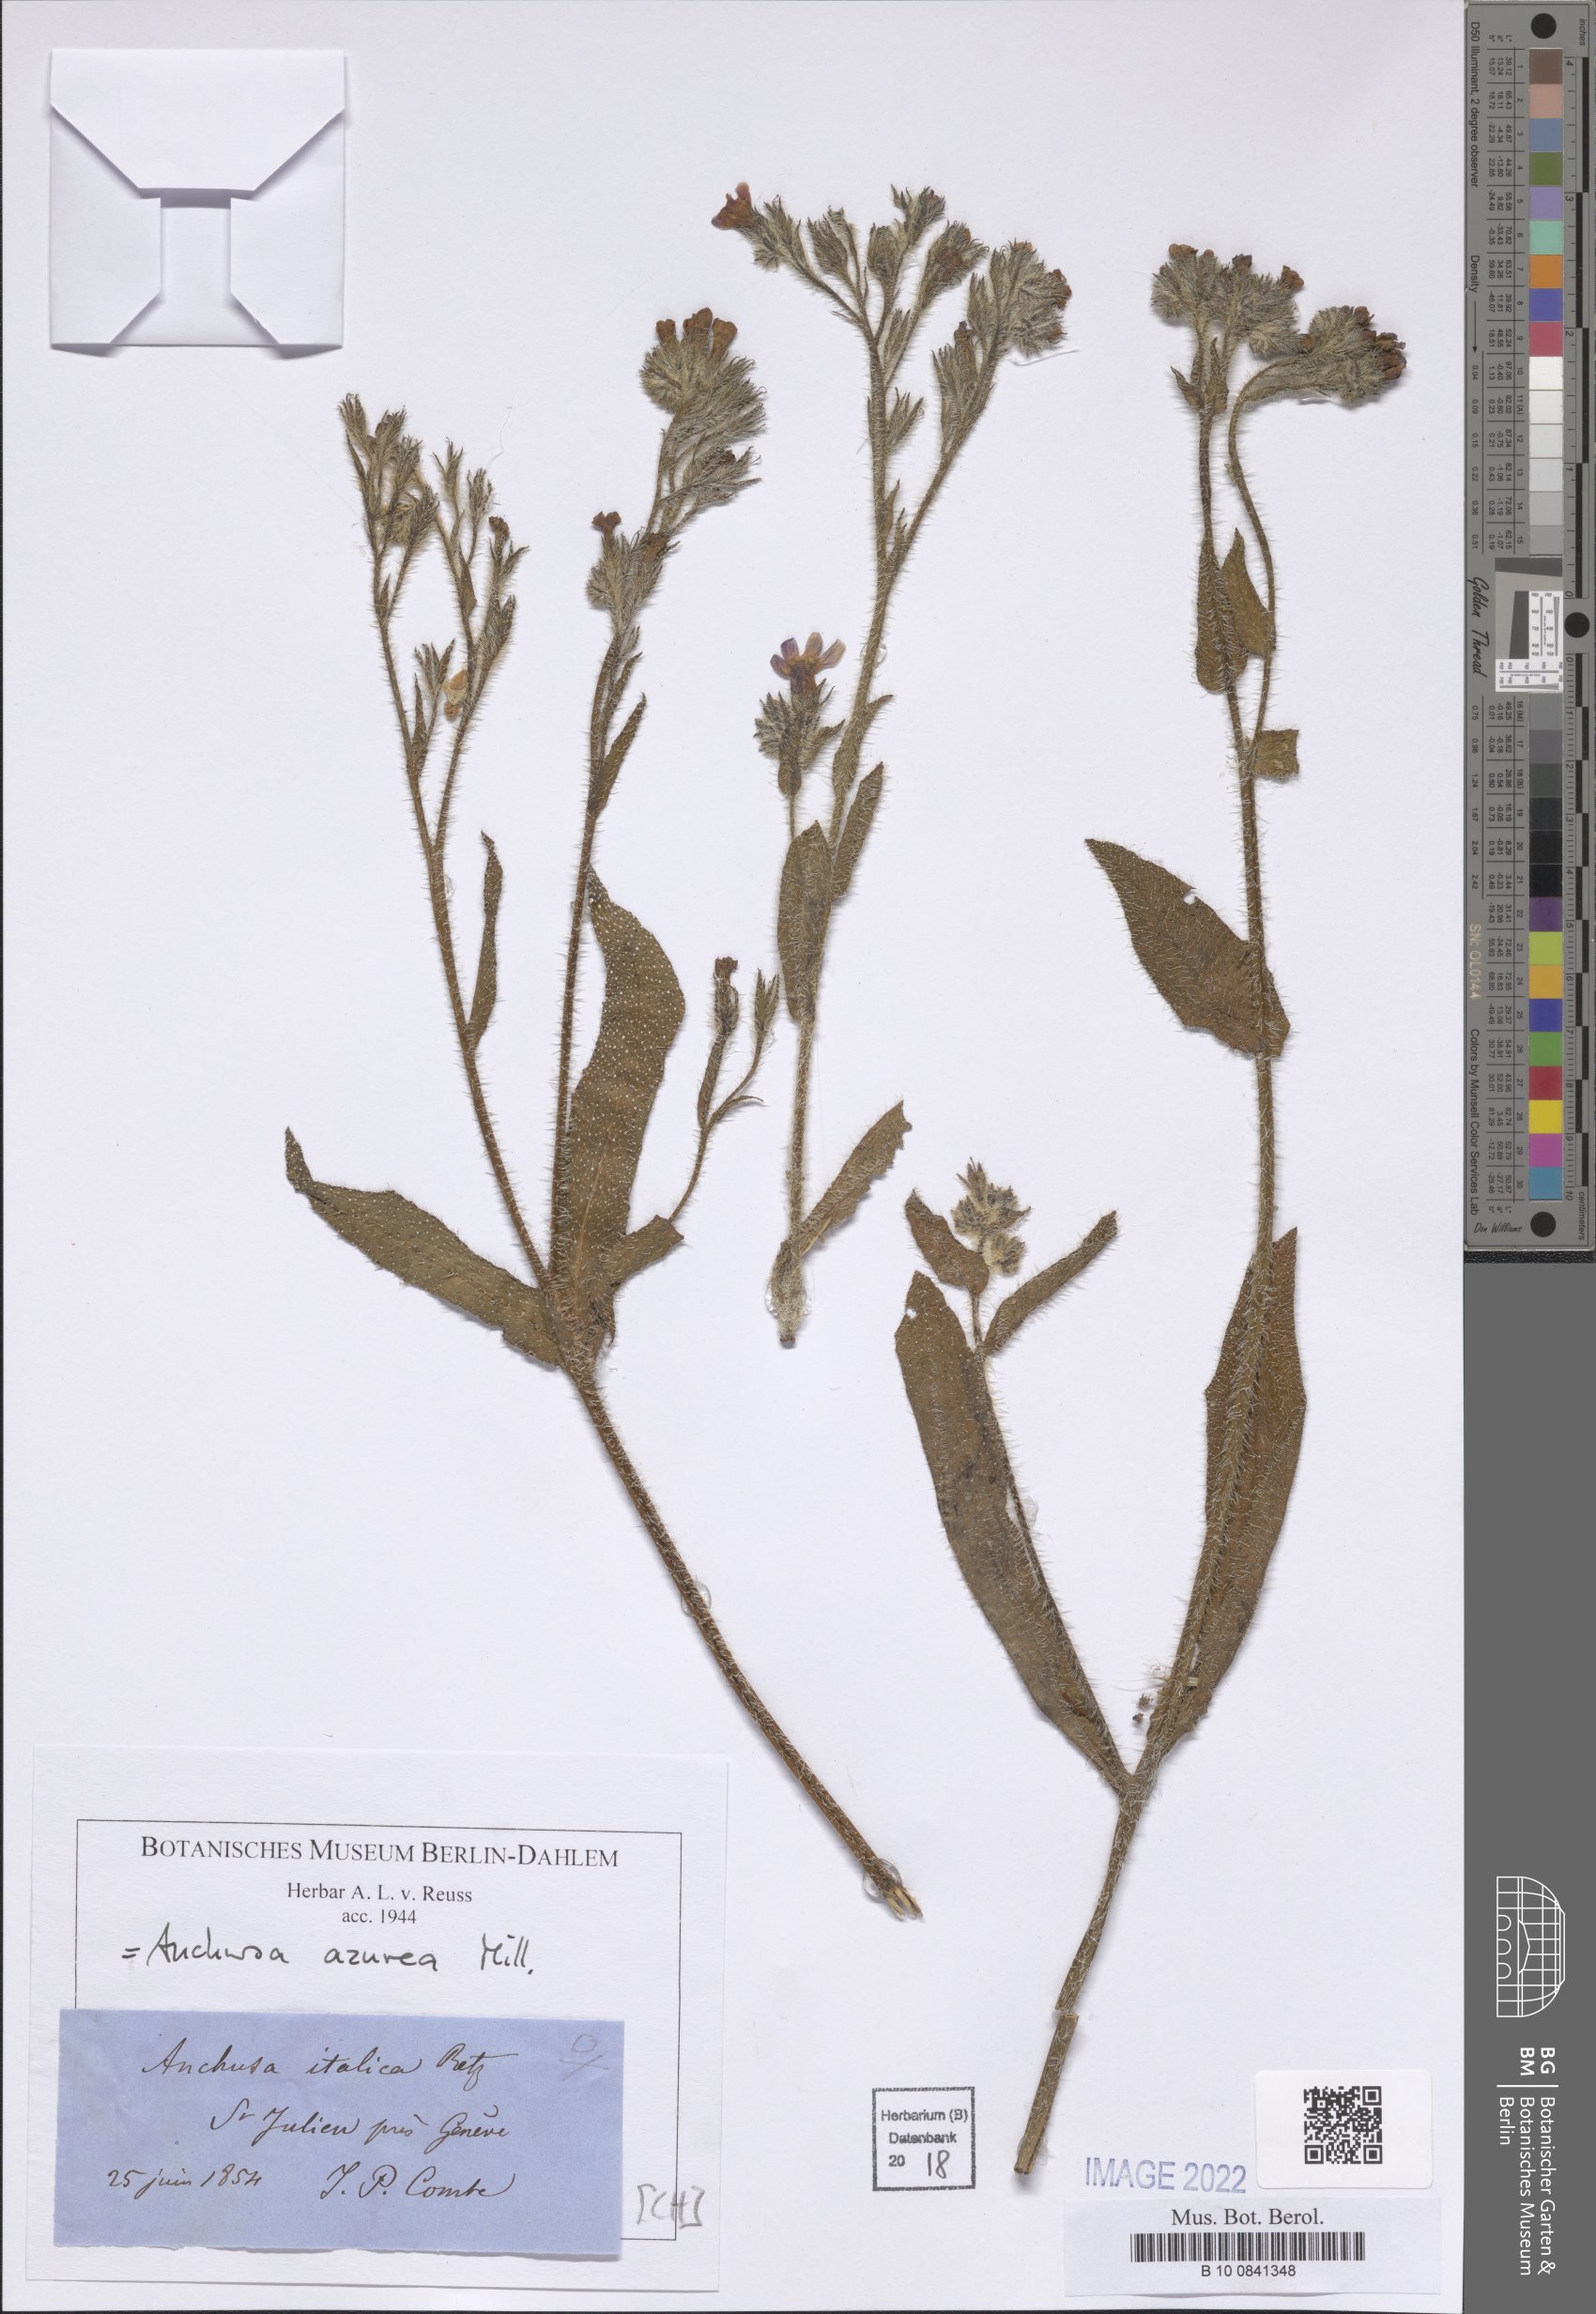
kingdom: Plantae
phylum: Tracheophyta
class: Magnoliopsida
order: Boraginales
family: Boraginaceae
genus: Anchusa
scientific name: Anchusa azurea
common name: Garden anchusa
